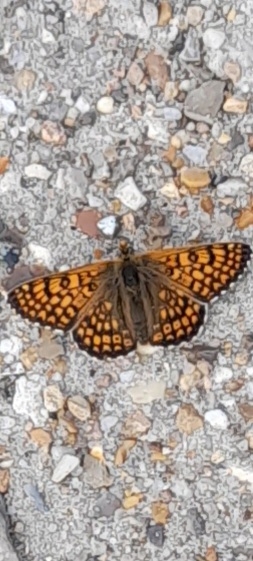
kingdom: Animalia
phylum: Arthropoda
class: Insecta
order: Lepidoptera
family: Nymphalidae
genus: Melitaea
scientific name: Melitaea cinxia
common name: Okkergul pletvinge
